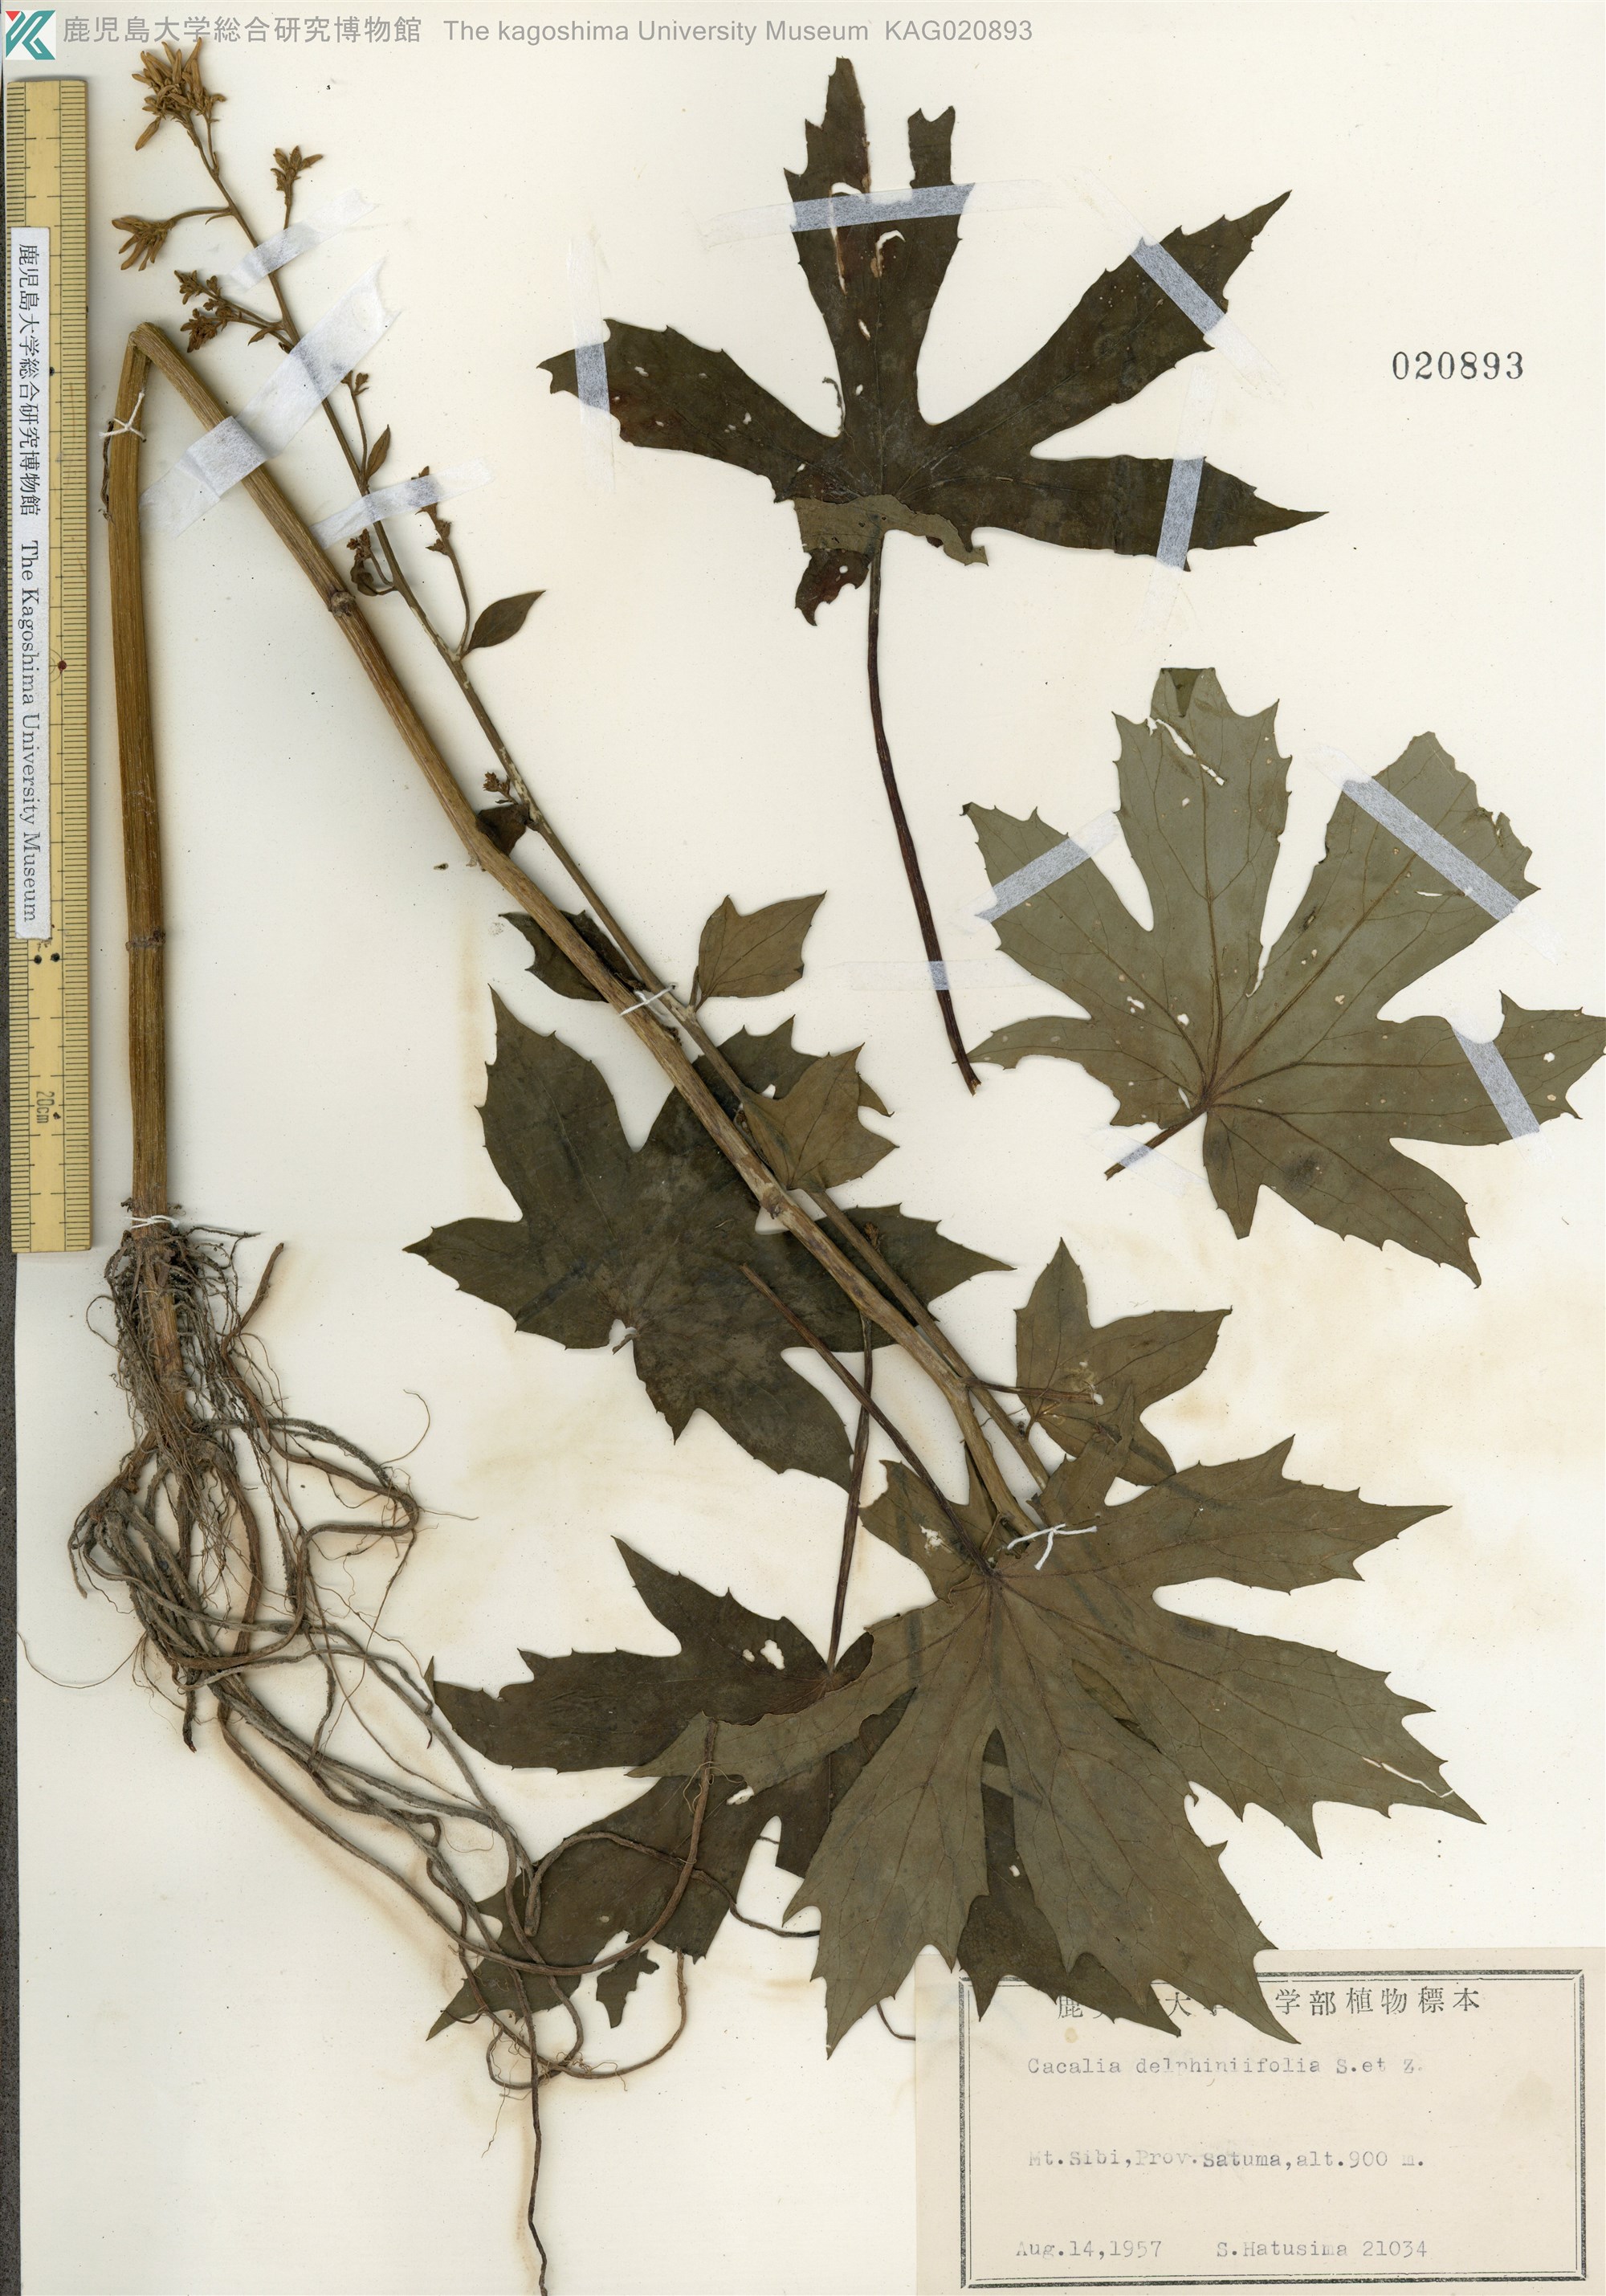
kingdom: Plantae
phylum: Tracheophyta
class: Magnoliopsida
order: Asterales
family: Asteraceae
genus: Japonicalia
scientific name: Japonicalia delphiniifolia
